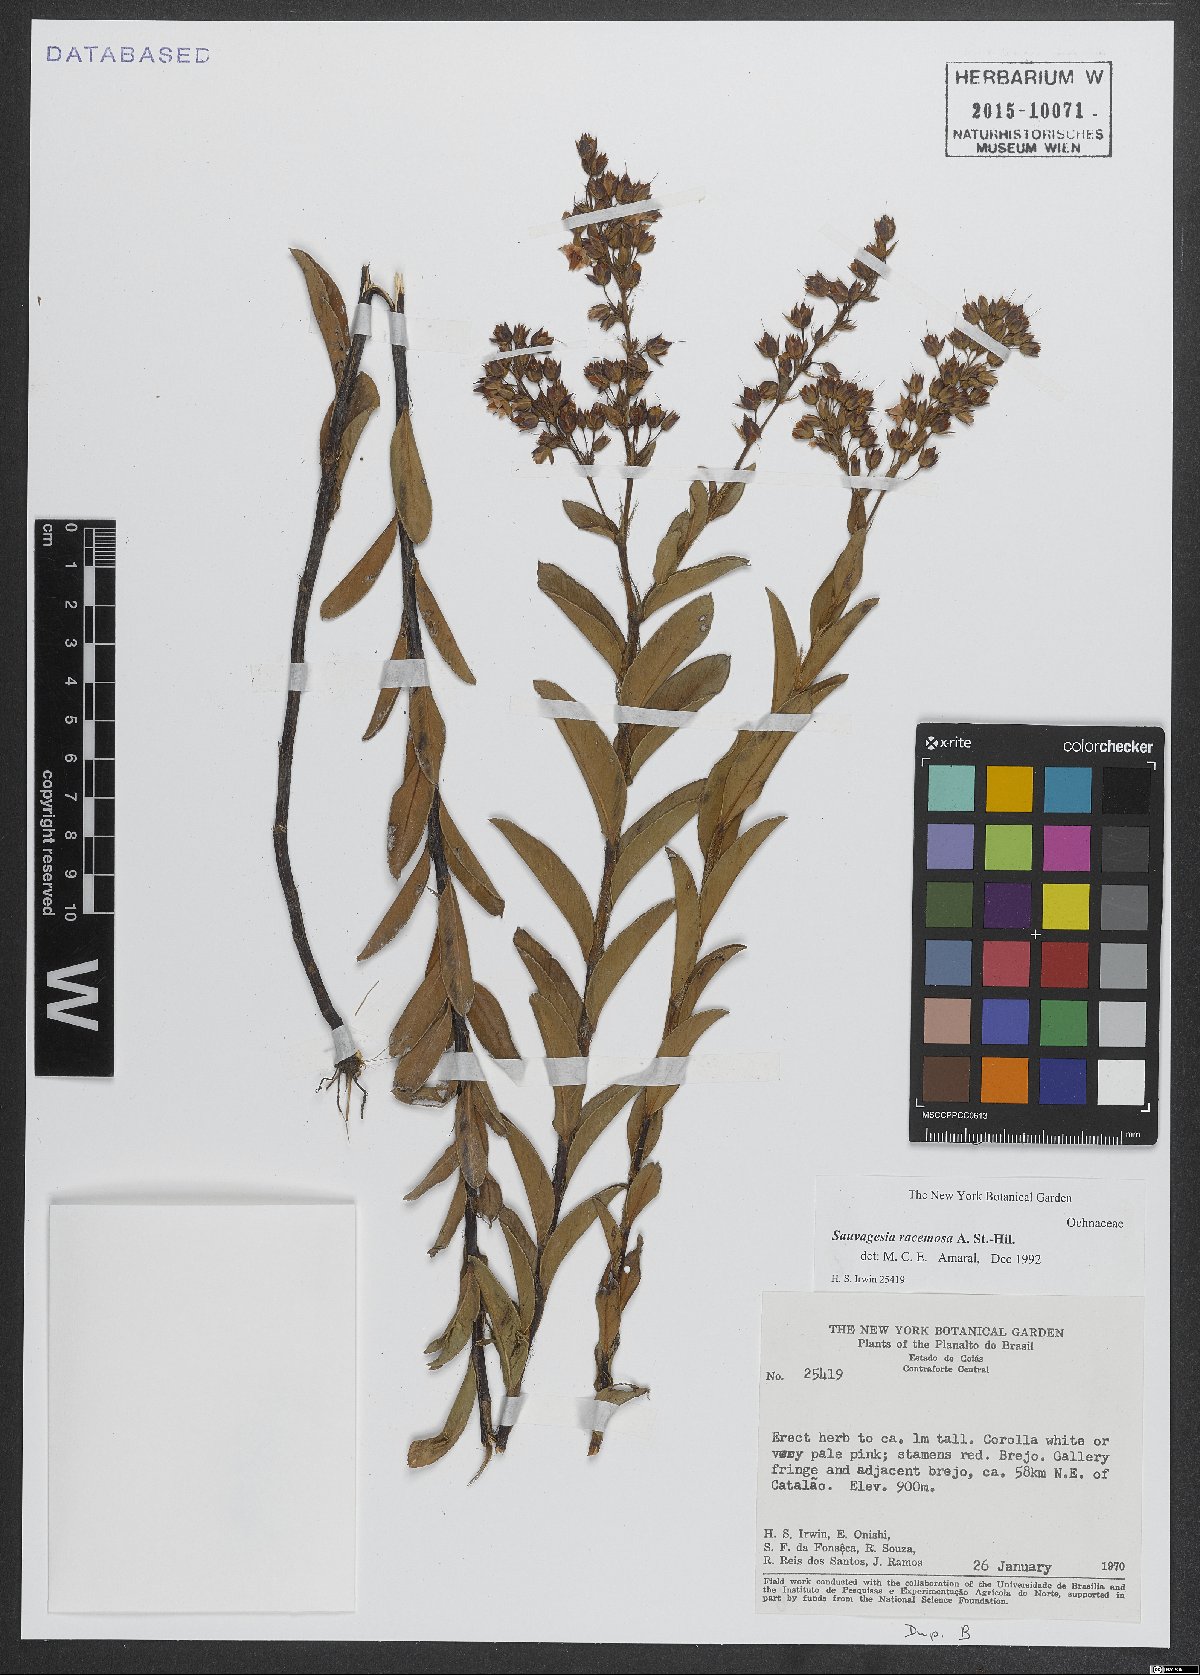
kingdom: Plantae
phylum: Tracheophyta
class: Magnoliopsida
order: Malpighiales
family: Ochnaceae
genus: Sauvagesia
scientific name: Sauvagesia racemosa
